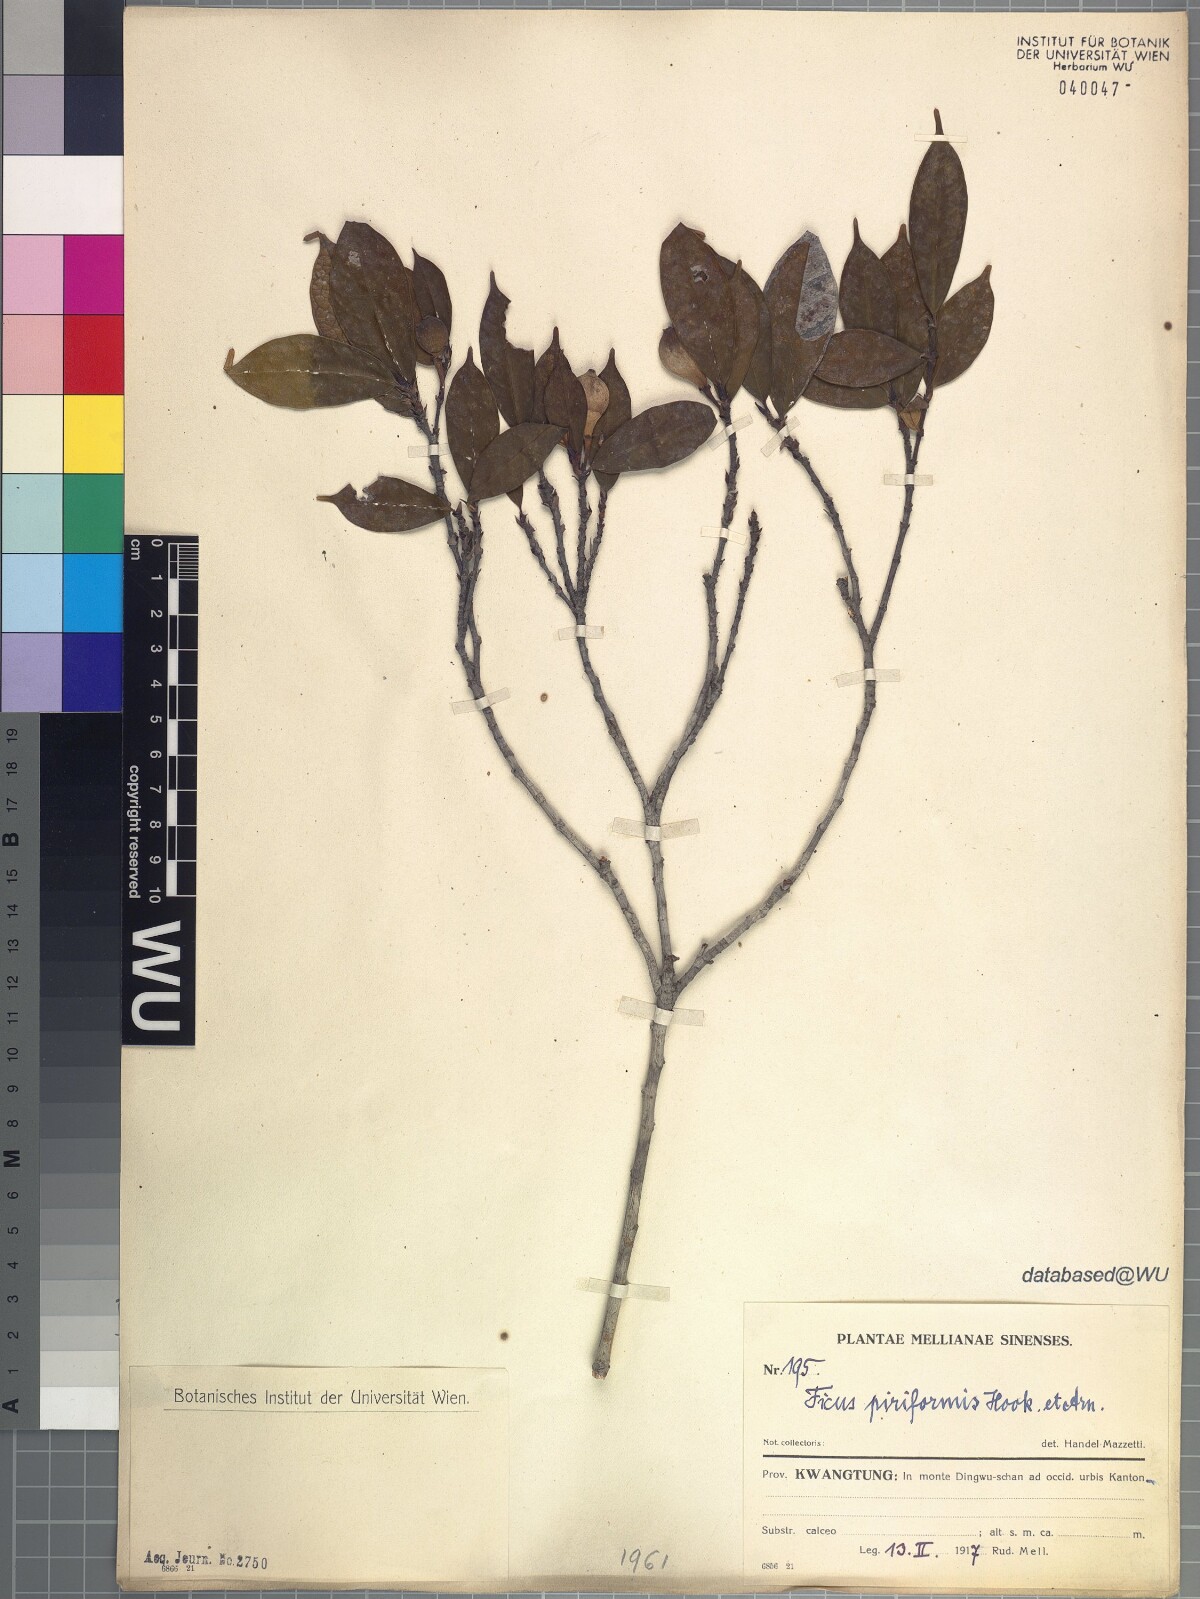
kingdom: Plantae
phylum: Tracheophyta
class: Magnoliopsida
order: Rosales
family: Moraceae
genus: Ficus
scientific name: Ficus pyriformis
